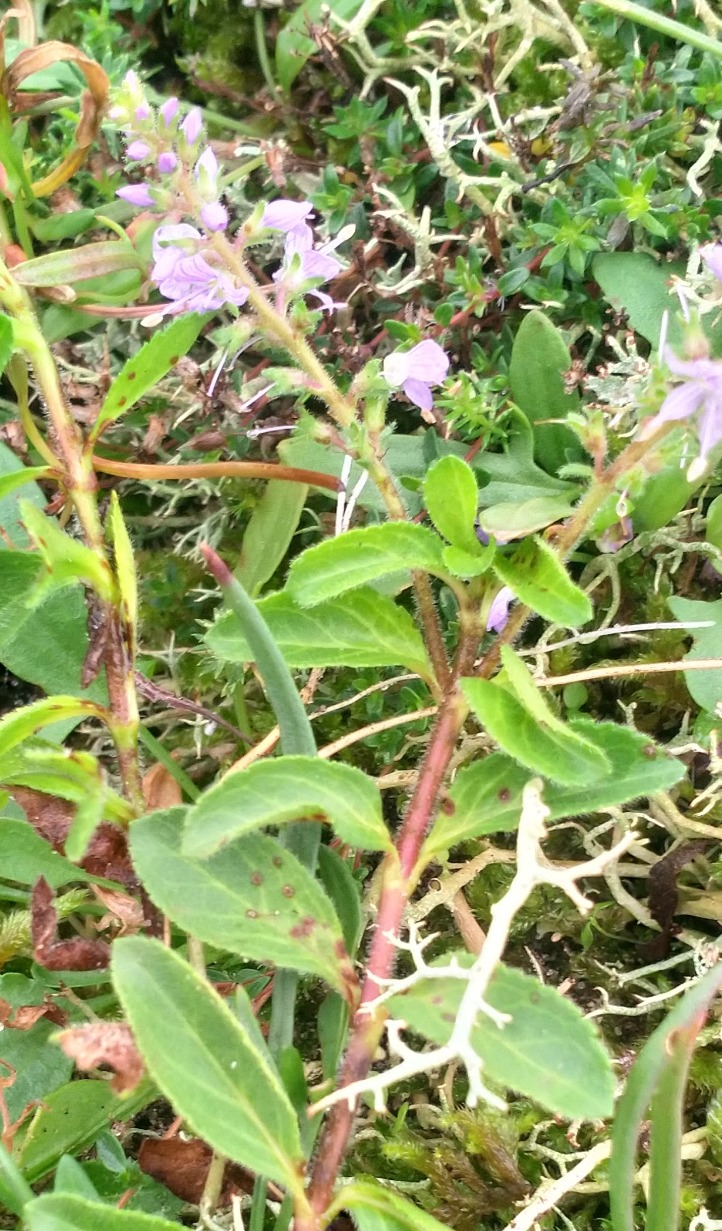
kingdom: Plantae
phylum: Tracheophyta
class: Magnoliopsida
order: Lamiales
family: Plantaginaceae
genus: Veronica
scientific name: Veronica officinalis
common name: Læge-ærenpris
